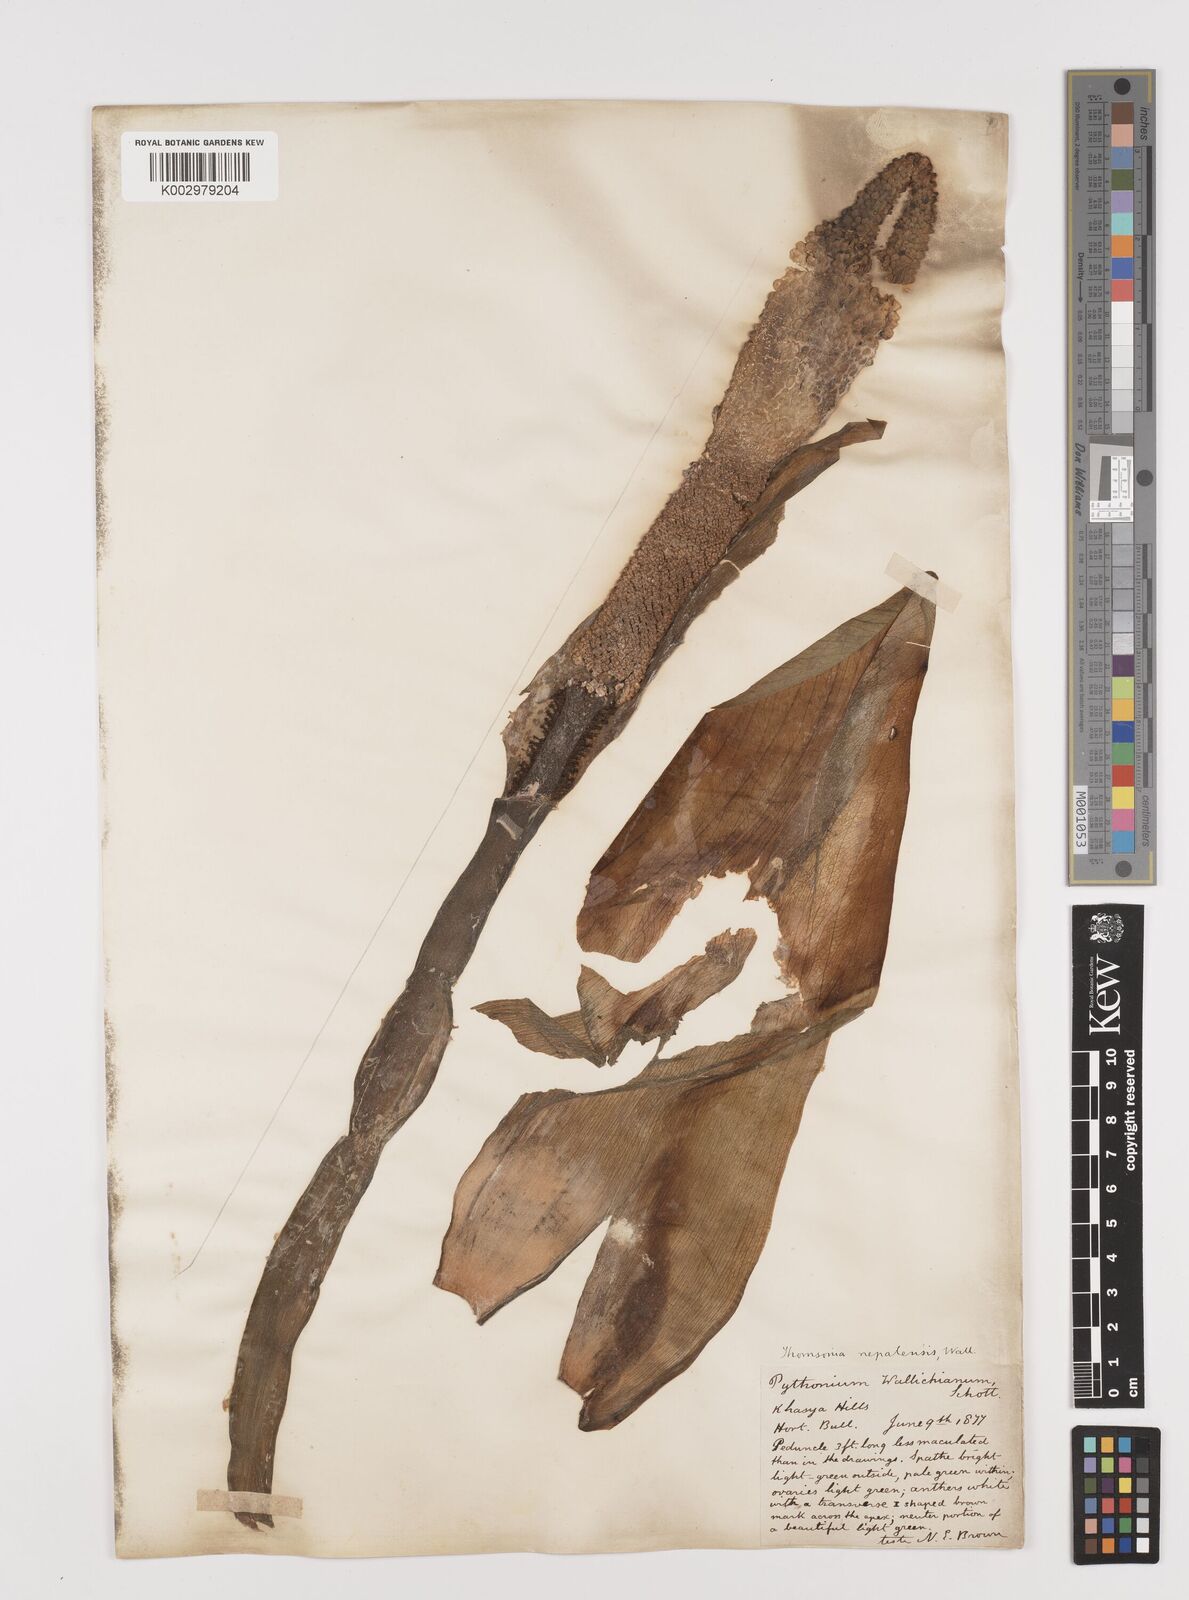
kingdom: Plantae
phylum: Tracheophyta
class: Liliopsida
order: Alismatales
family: Araceae
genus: Amorphophallus
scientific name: Amorphophallus napalensis
